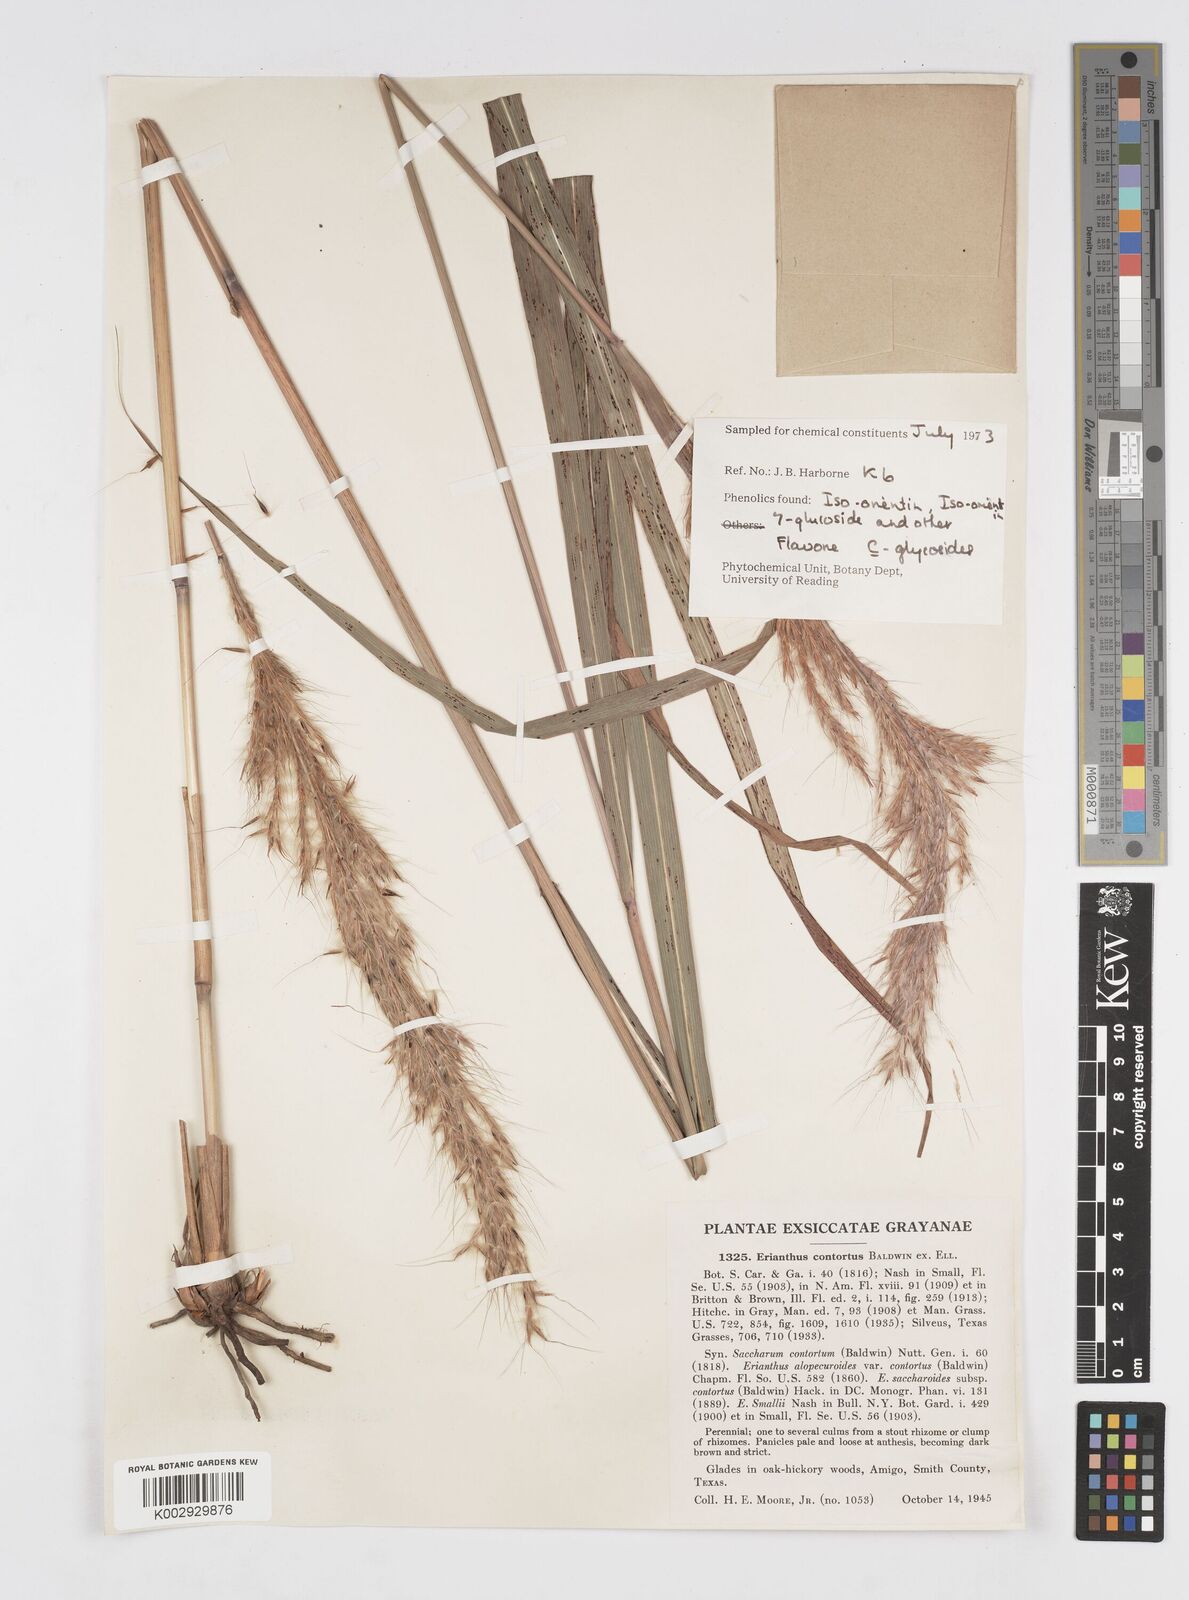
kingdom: Plantae
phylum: Tracheophyta
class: Liliopsida
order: Poales
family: Poaceae
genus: Erianthus
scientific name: Erianthus contortus
